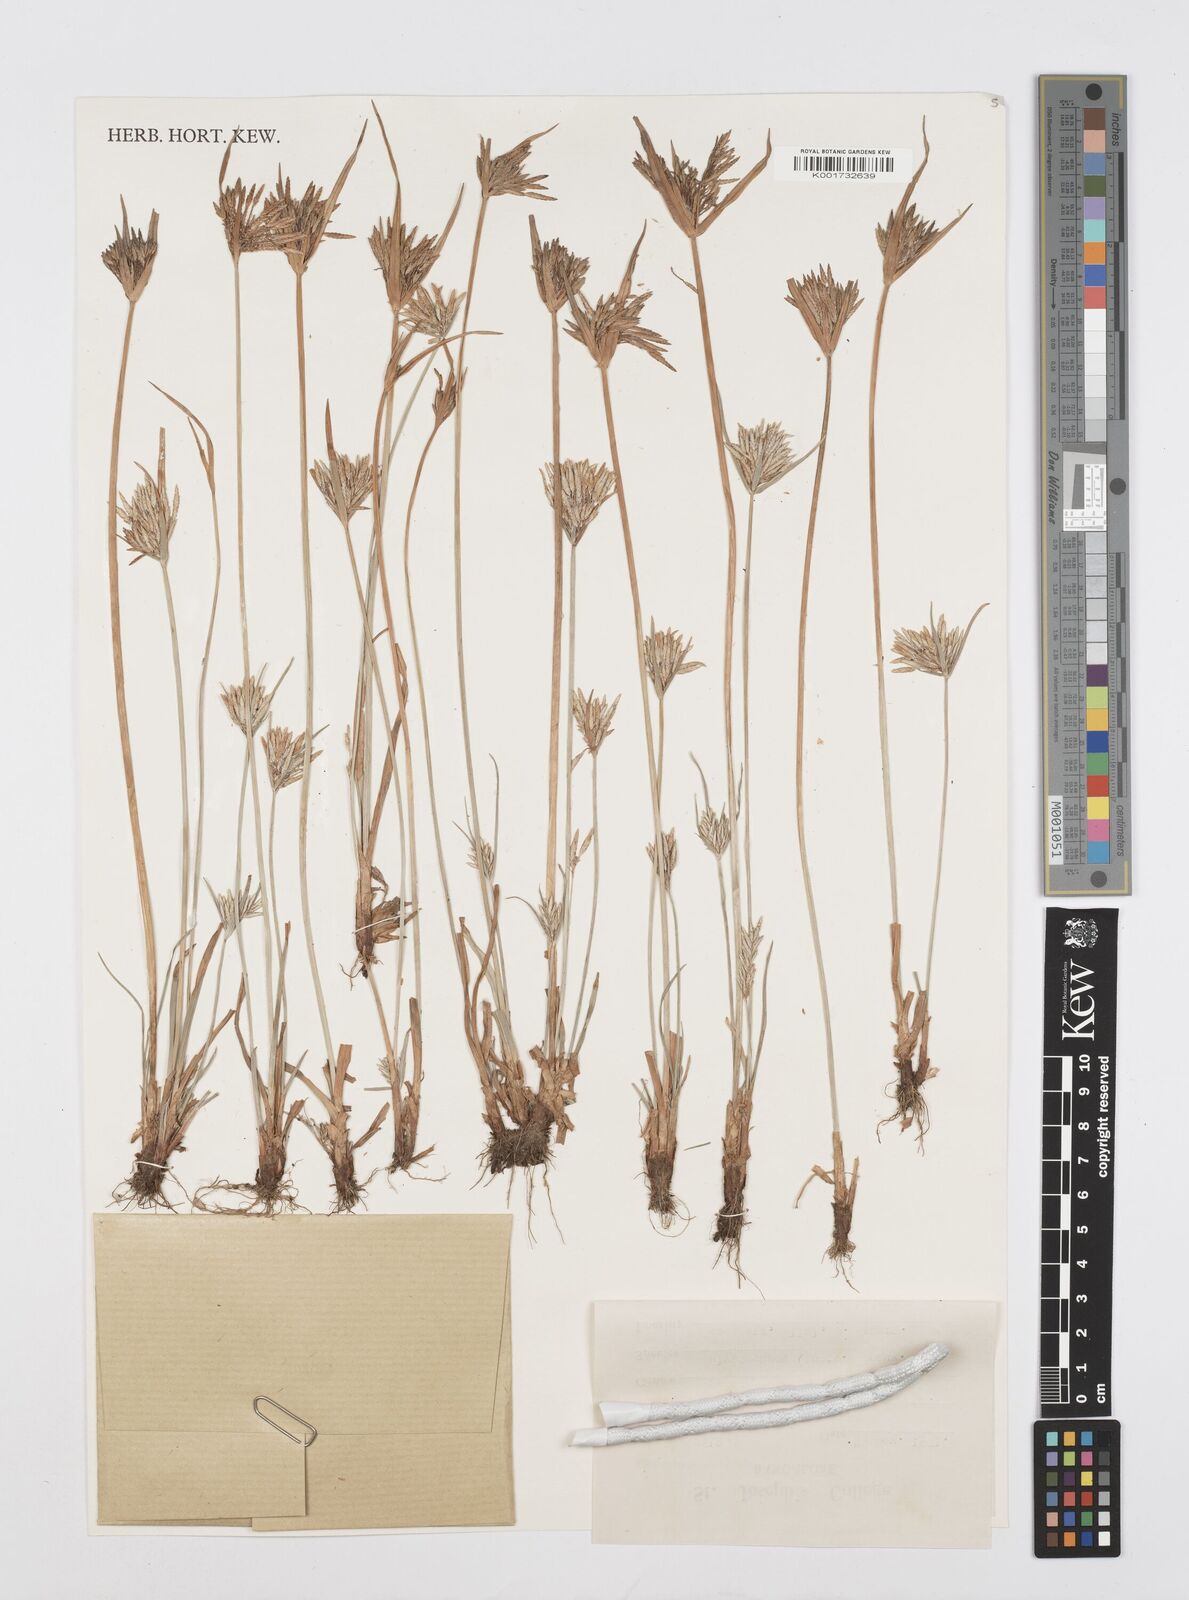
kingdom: Plantae
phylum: Tracheophyta
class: Liliopsida
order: Poales
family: Cyperaceae
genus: Cyperus
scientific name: Cyperus polystachyos
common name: Bunchy flat sedge
